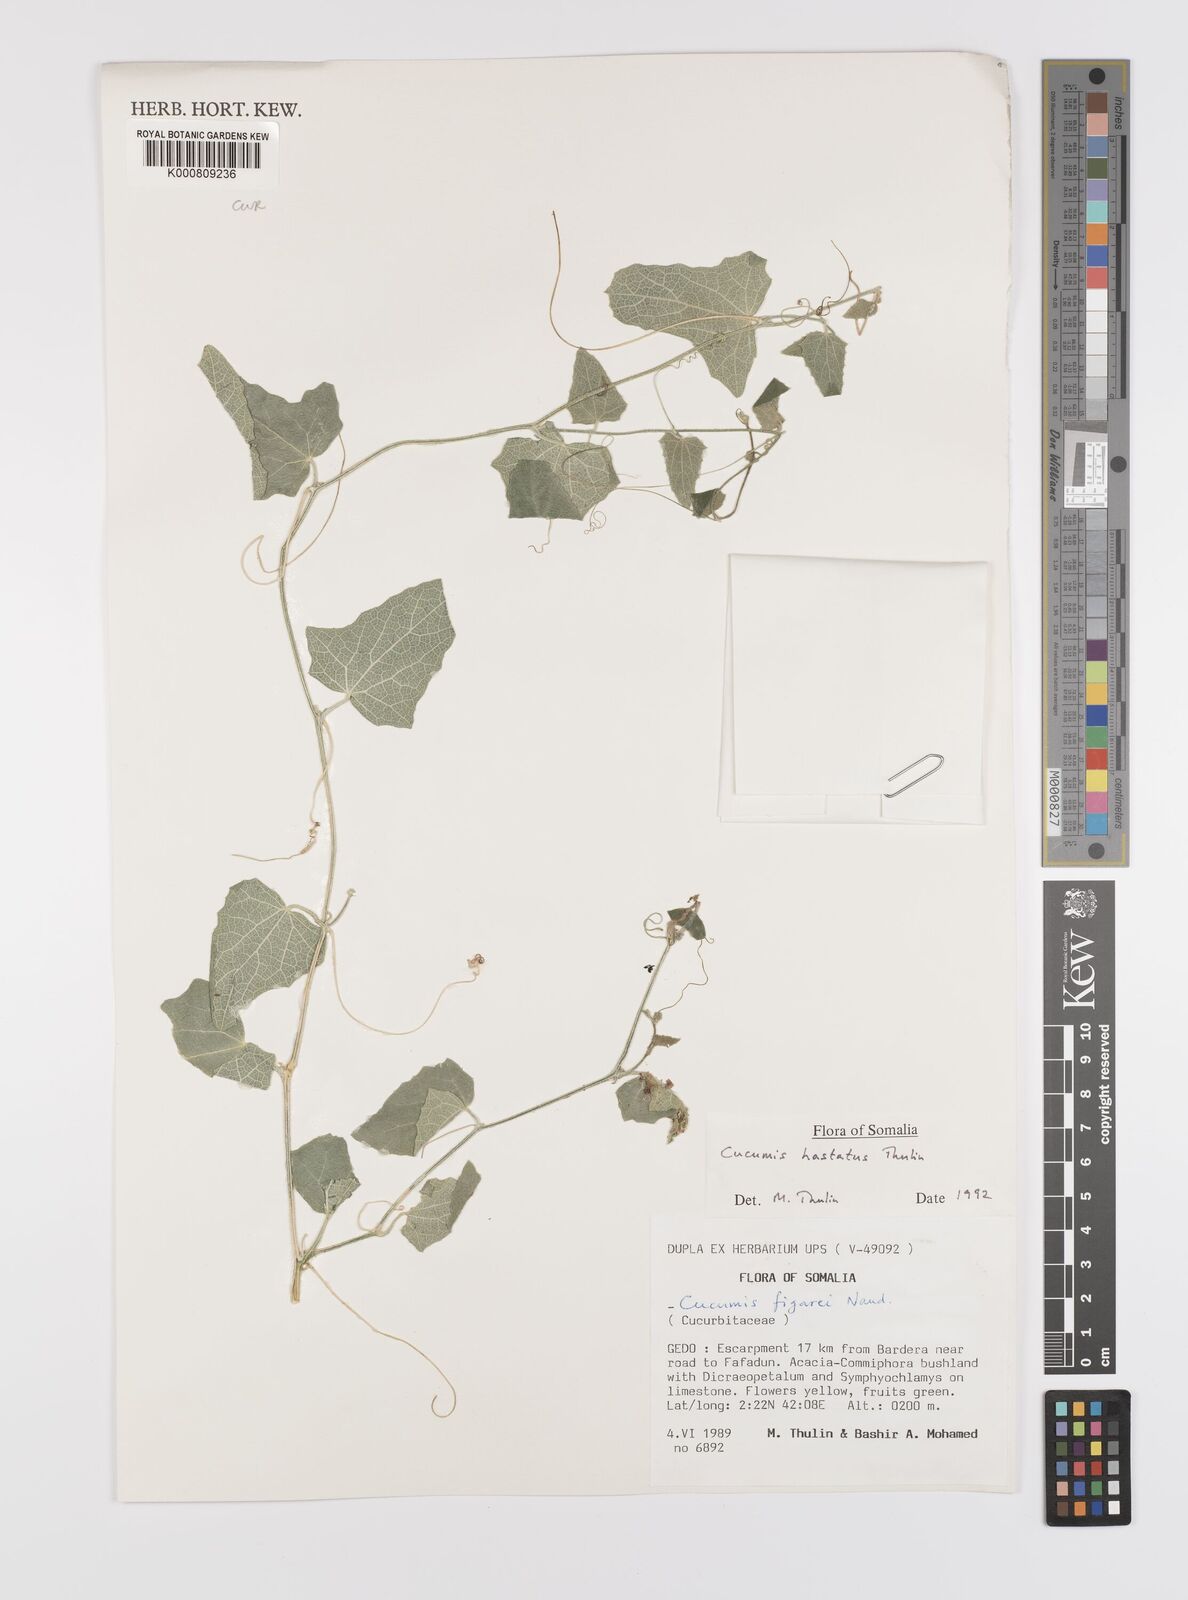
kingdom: Plantae
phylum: Tracheophyta
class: Magnoliopsida
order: Cucurbitales
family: Cucurbitaceae
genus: Cucumis
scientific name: Cucumis
